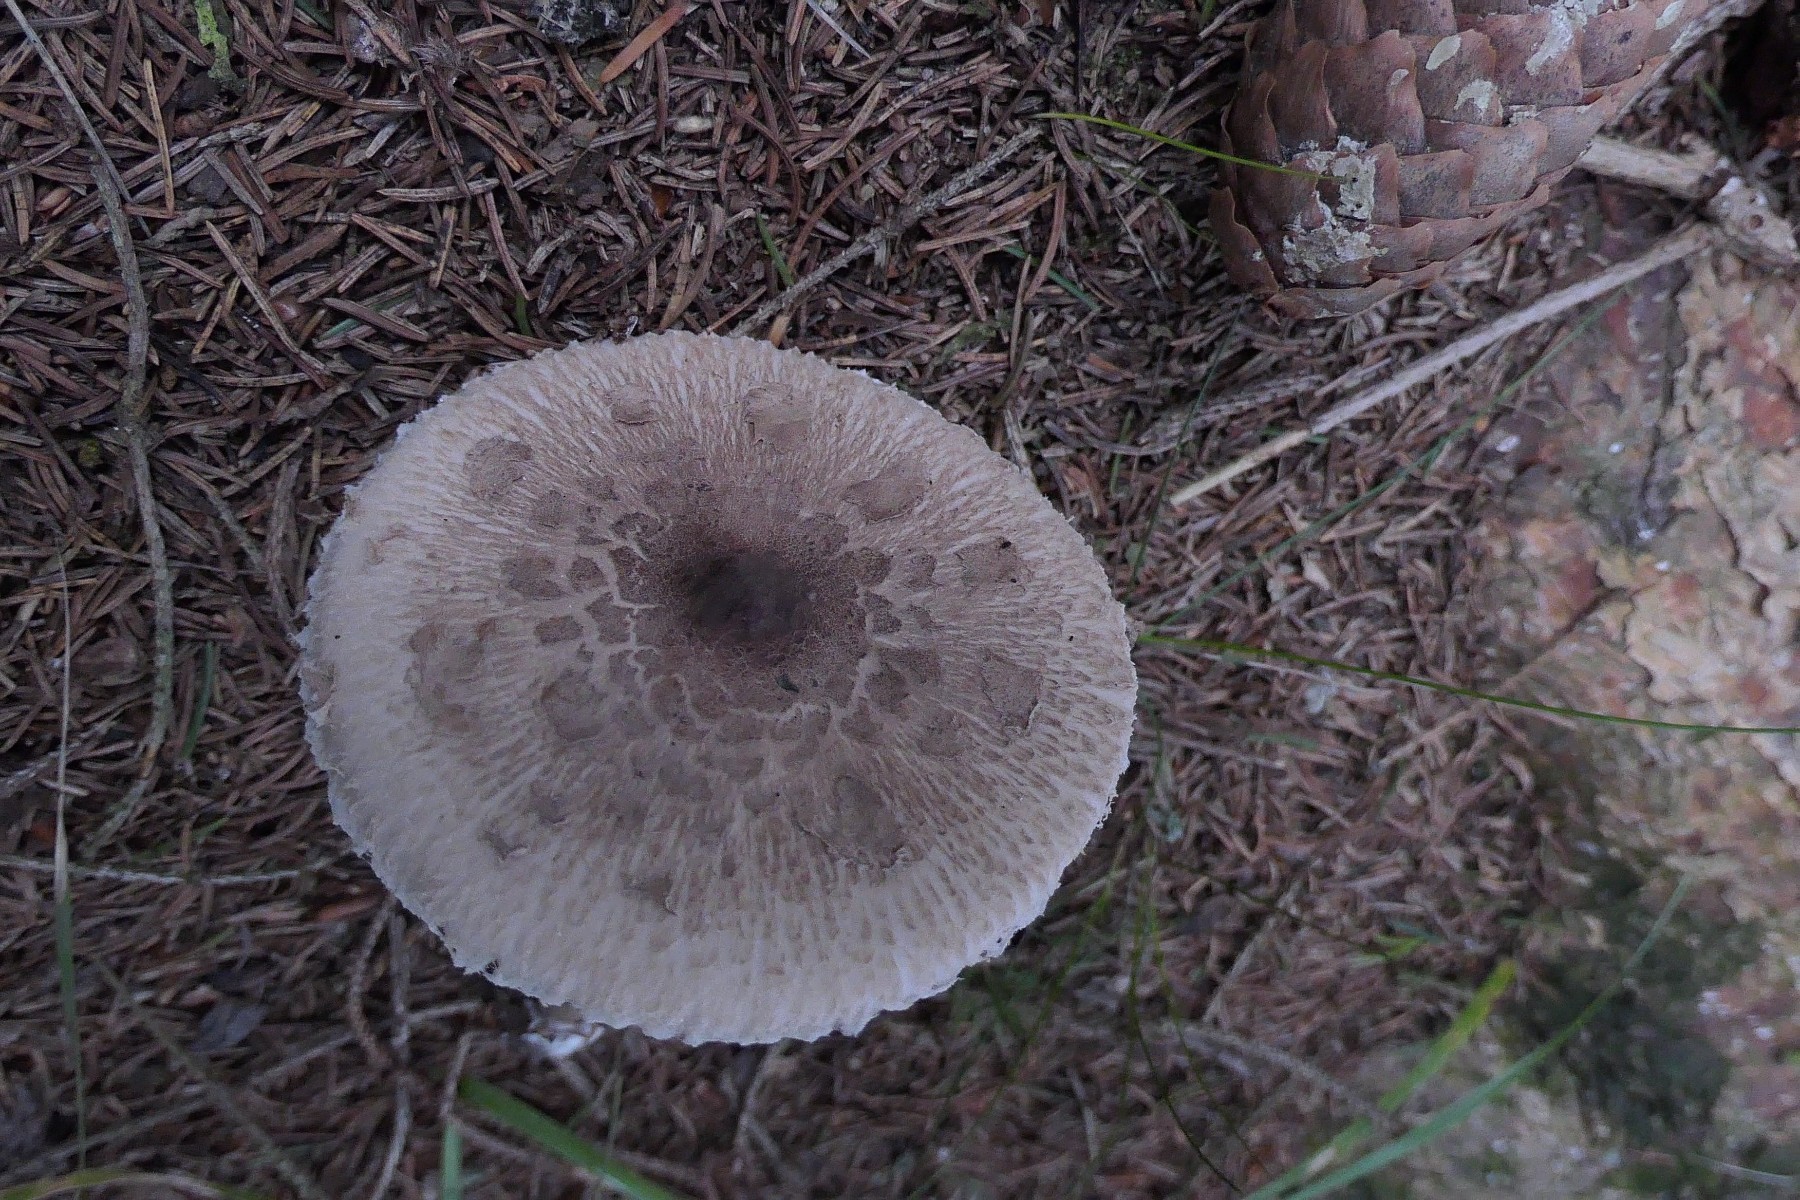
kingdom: Fungi
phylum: Basidiomycota
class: Agaricomycetes
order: Agaricales
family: Agaricaceae
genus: Chlorophyllum
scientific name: Chlorophyllum olivieri
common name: almindelig rabarberhat
